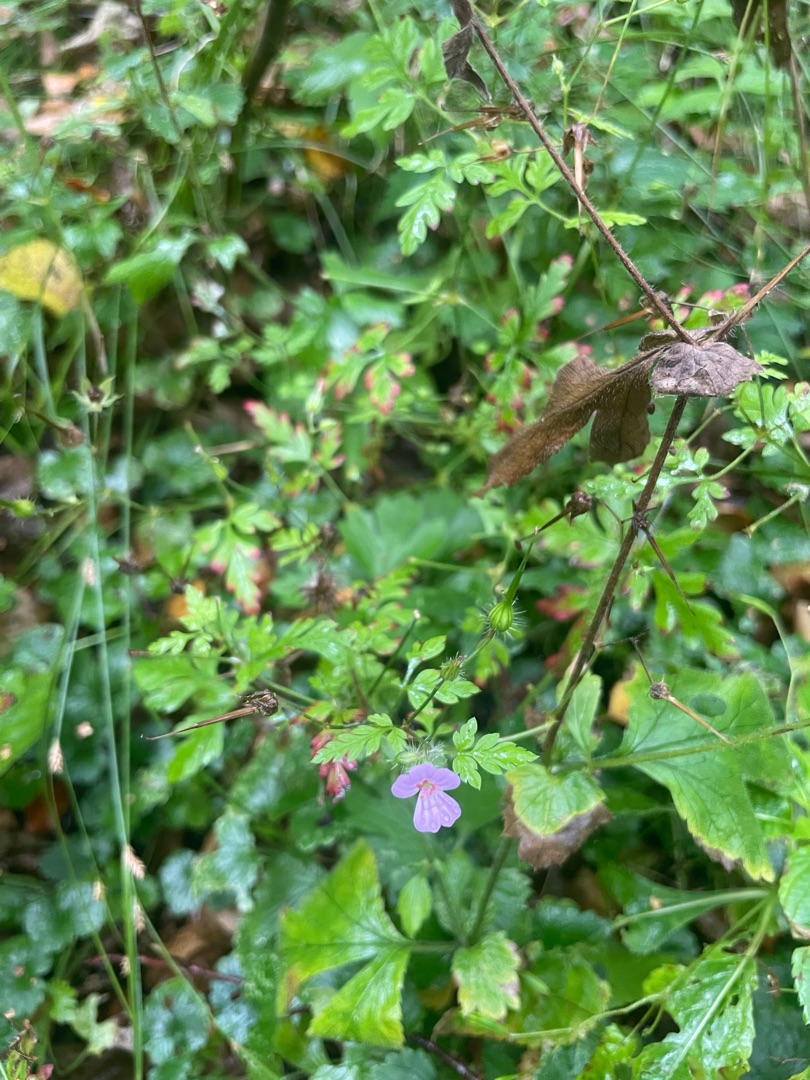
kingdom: Plantae
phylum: Tracheophyta
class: Magnoliopsida
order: Geraniales
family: Geraniaceae
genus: Geranium
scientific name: Geranium robertianum
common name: Stinkende storkenæb
